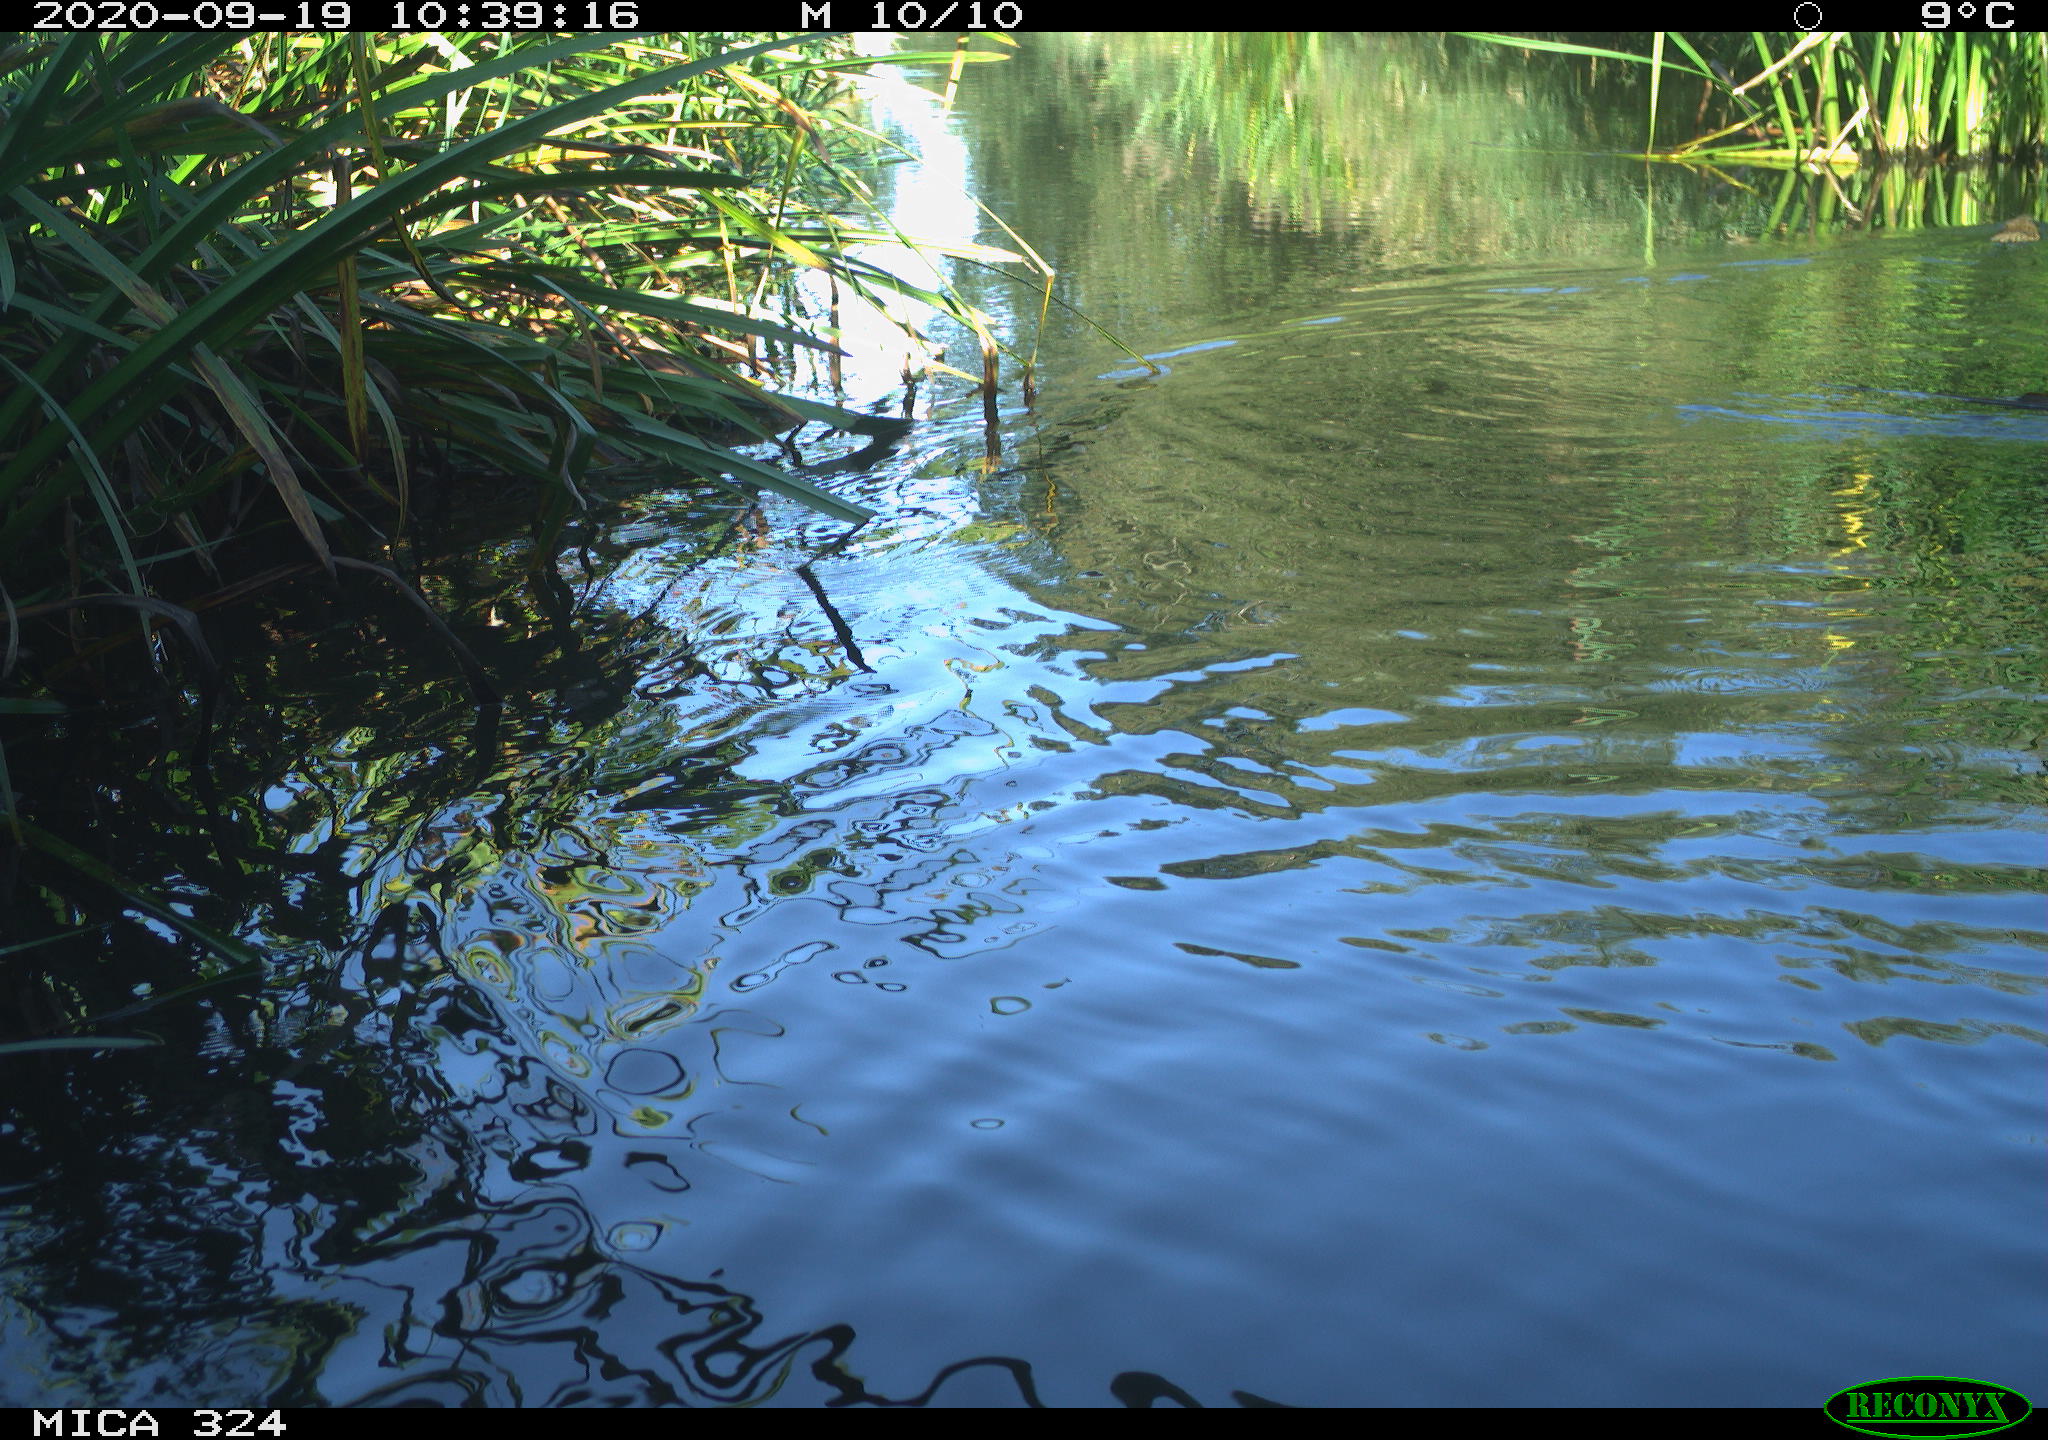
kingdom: Animalia
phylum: Chordata
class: Mammalia
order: Rodentia
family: Myocastoridae
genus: Myocastor
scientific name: Myocastor coypus
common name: Coypu
